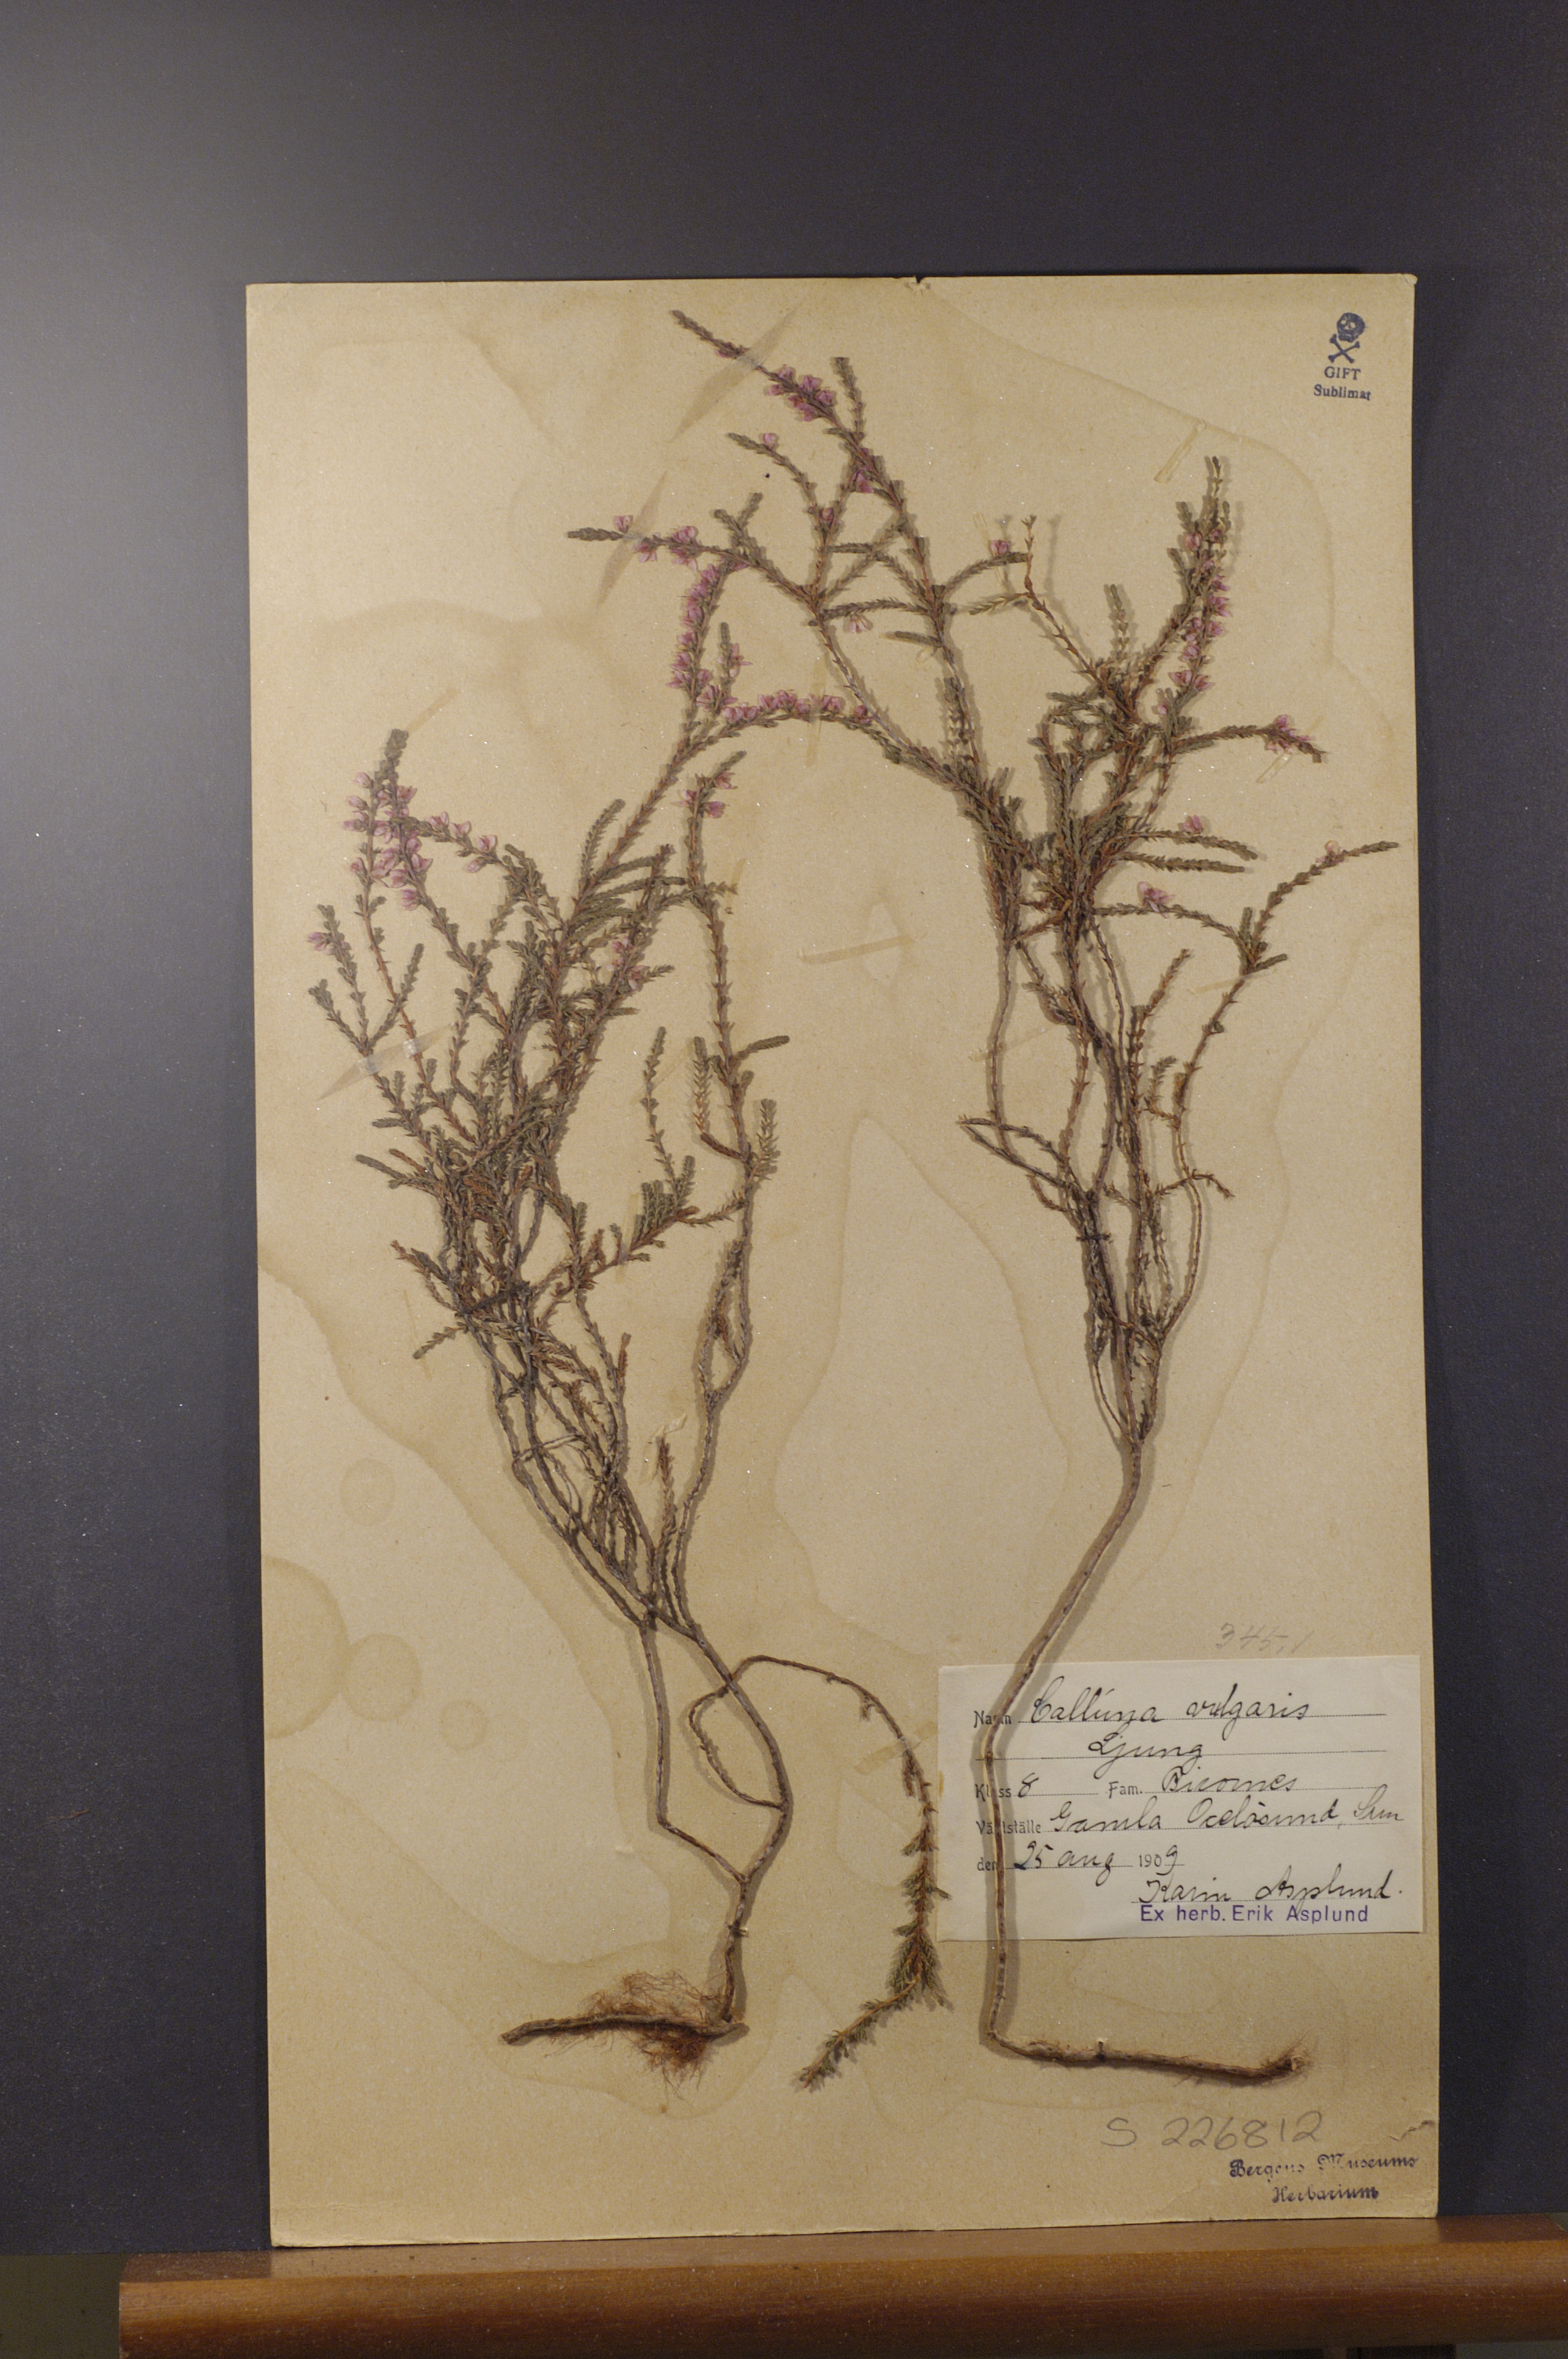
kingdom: Plantae
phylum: Tracheophyta
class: Magnoliopsida
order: Ericales
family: Ericaceae
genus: Calluna
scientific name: Calluna vulgaris
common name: Heather
